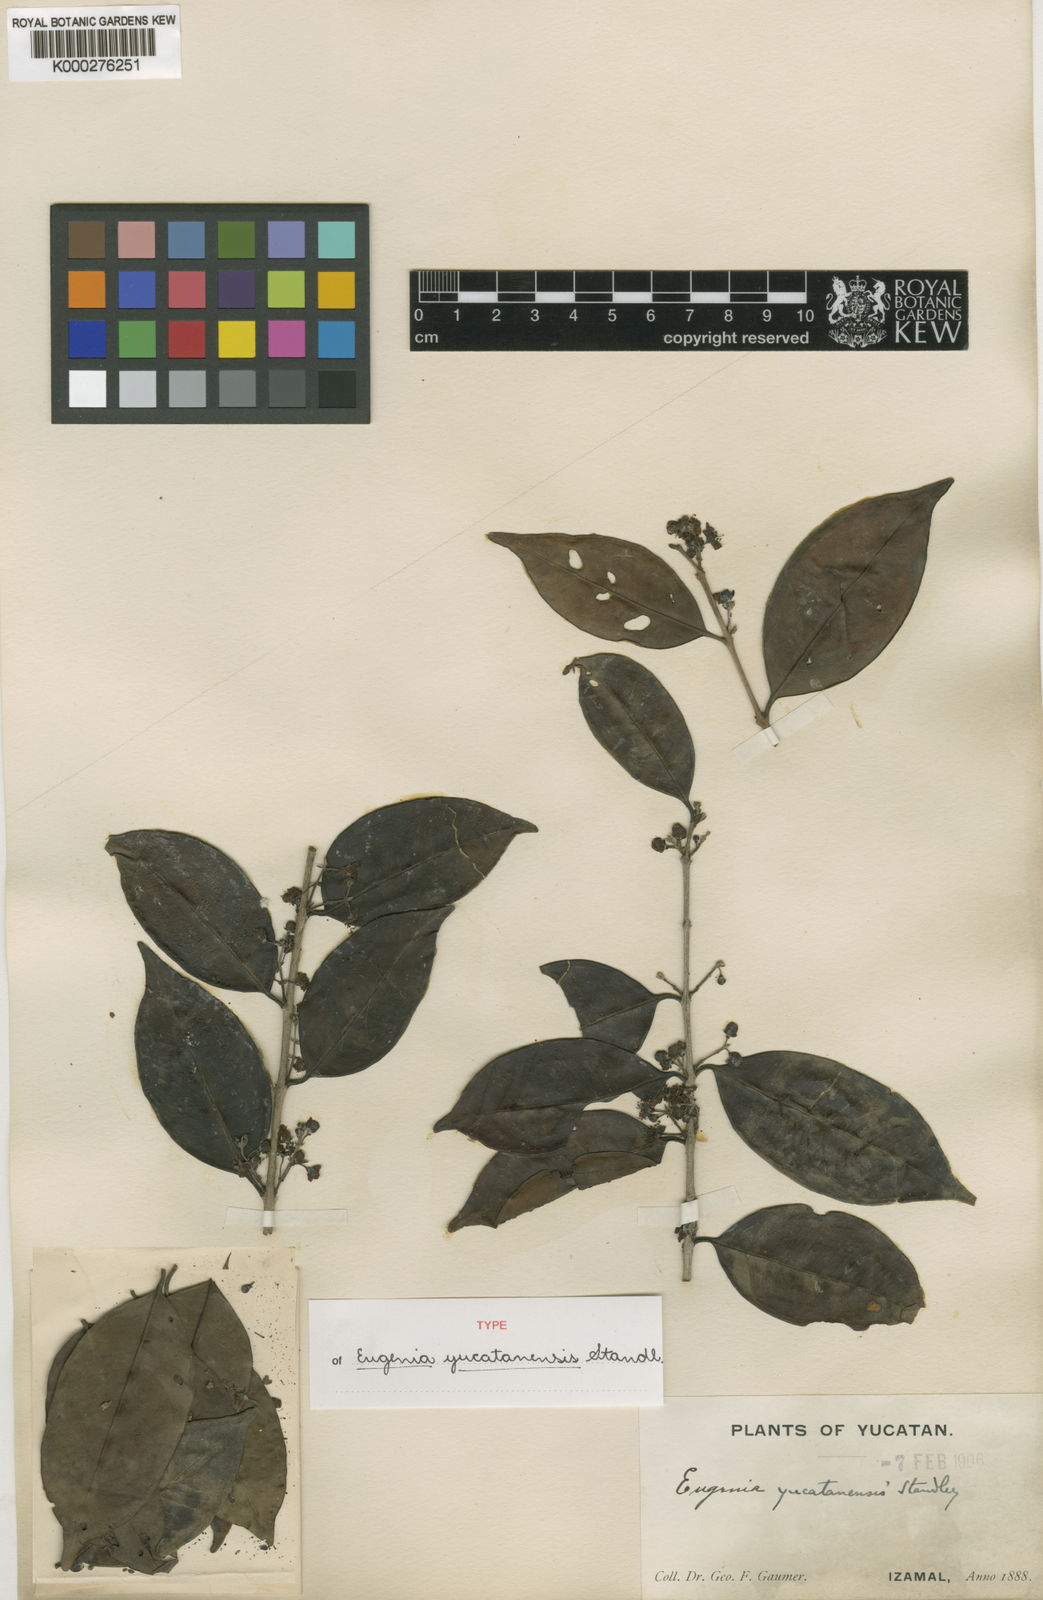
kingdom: Plantae
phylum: Tracheophyta
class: Magnoliopsida
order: Myrtales
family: Myrtaceae
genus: Eugenia
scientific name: Eugenia karwinskyana
